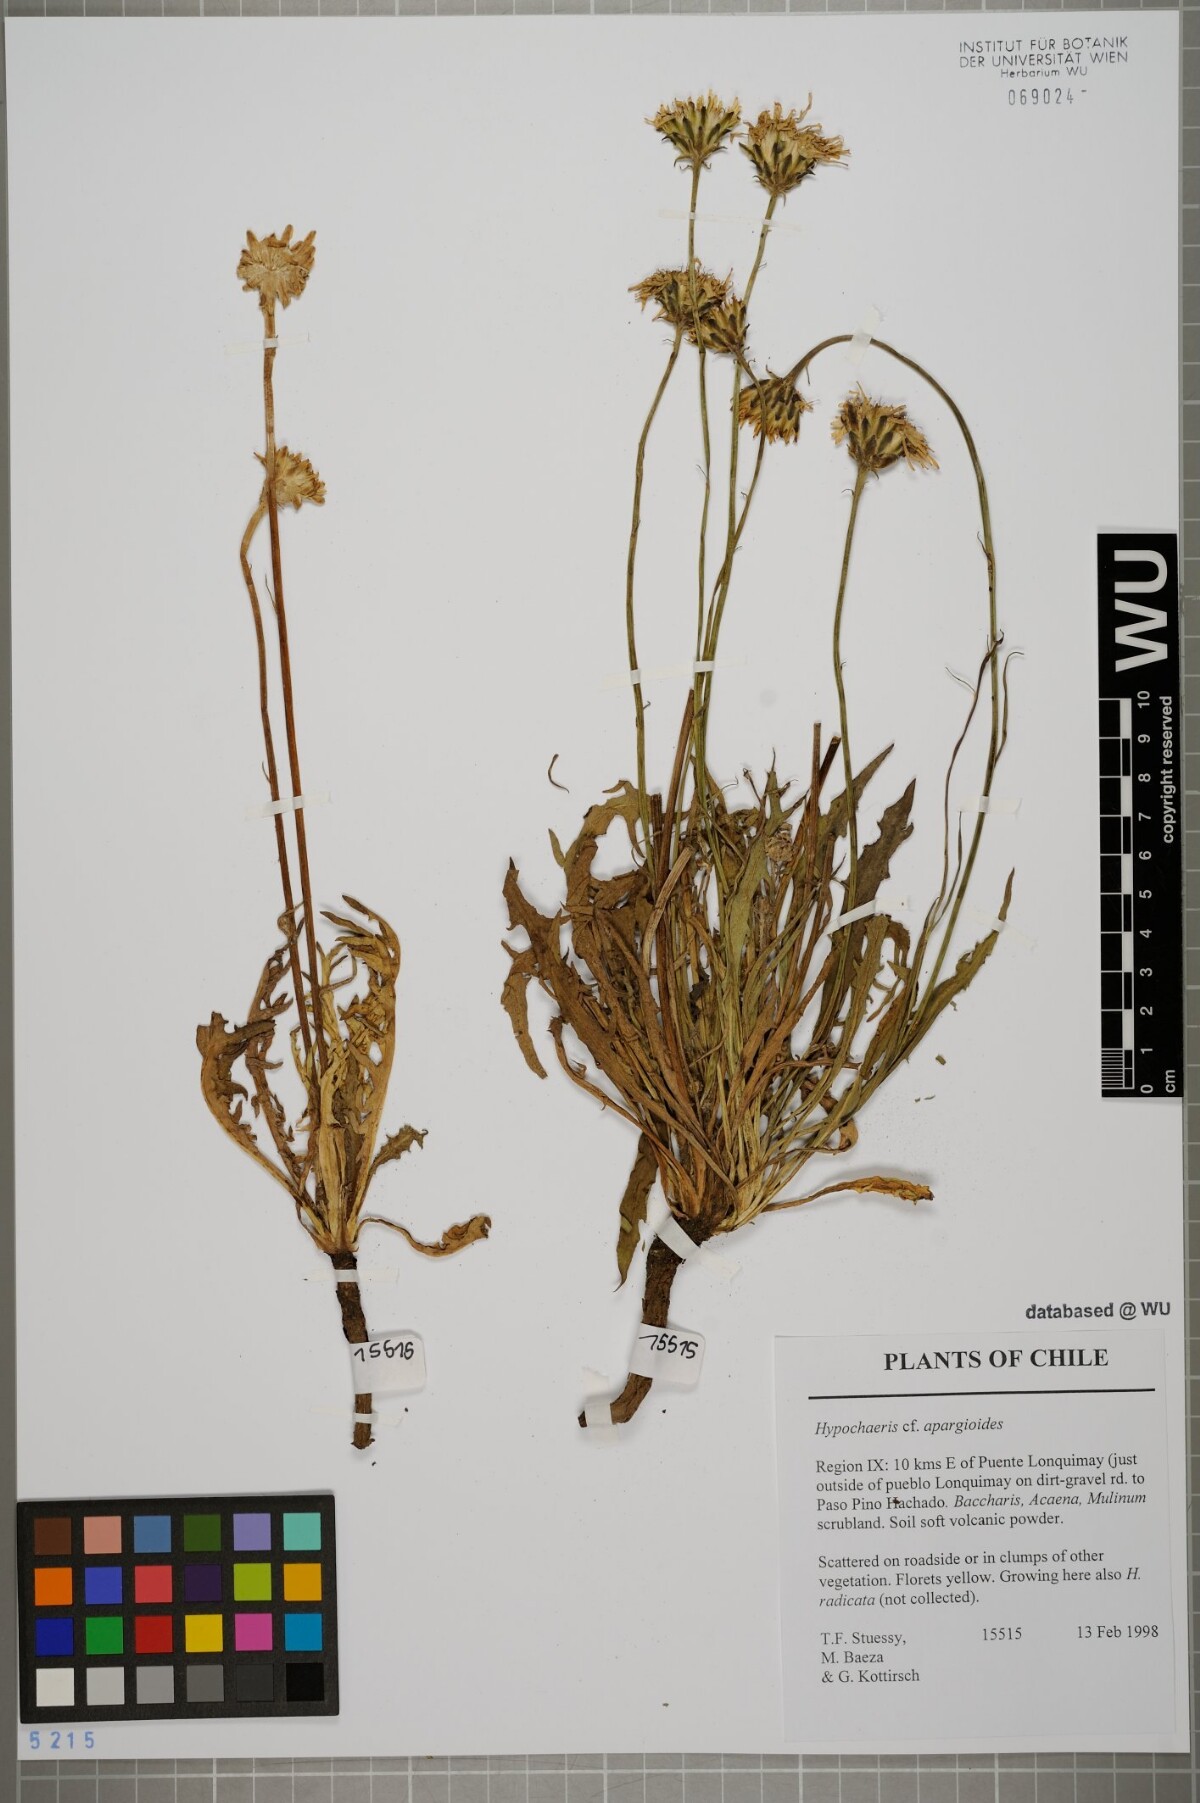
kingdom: Plantae
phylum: Tracheophyta
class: Magnoliopsida
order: Asterales
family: Asteraceae
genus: Hypochaeris
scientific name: Hypochaeris apargioides
